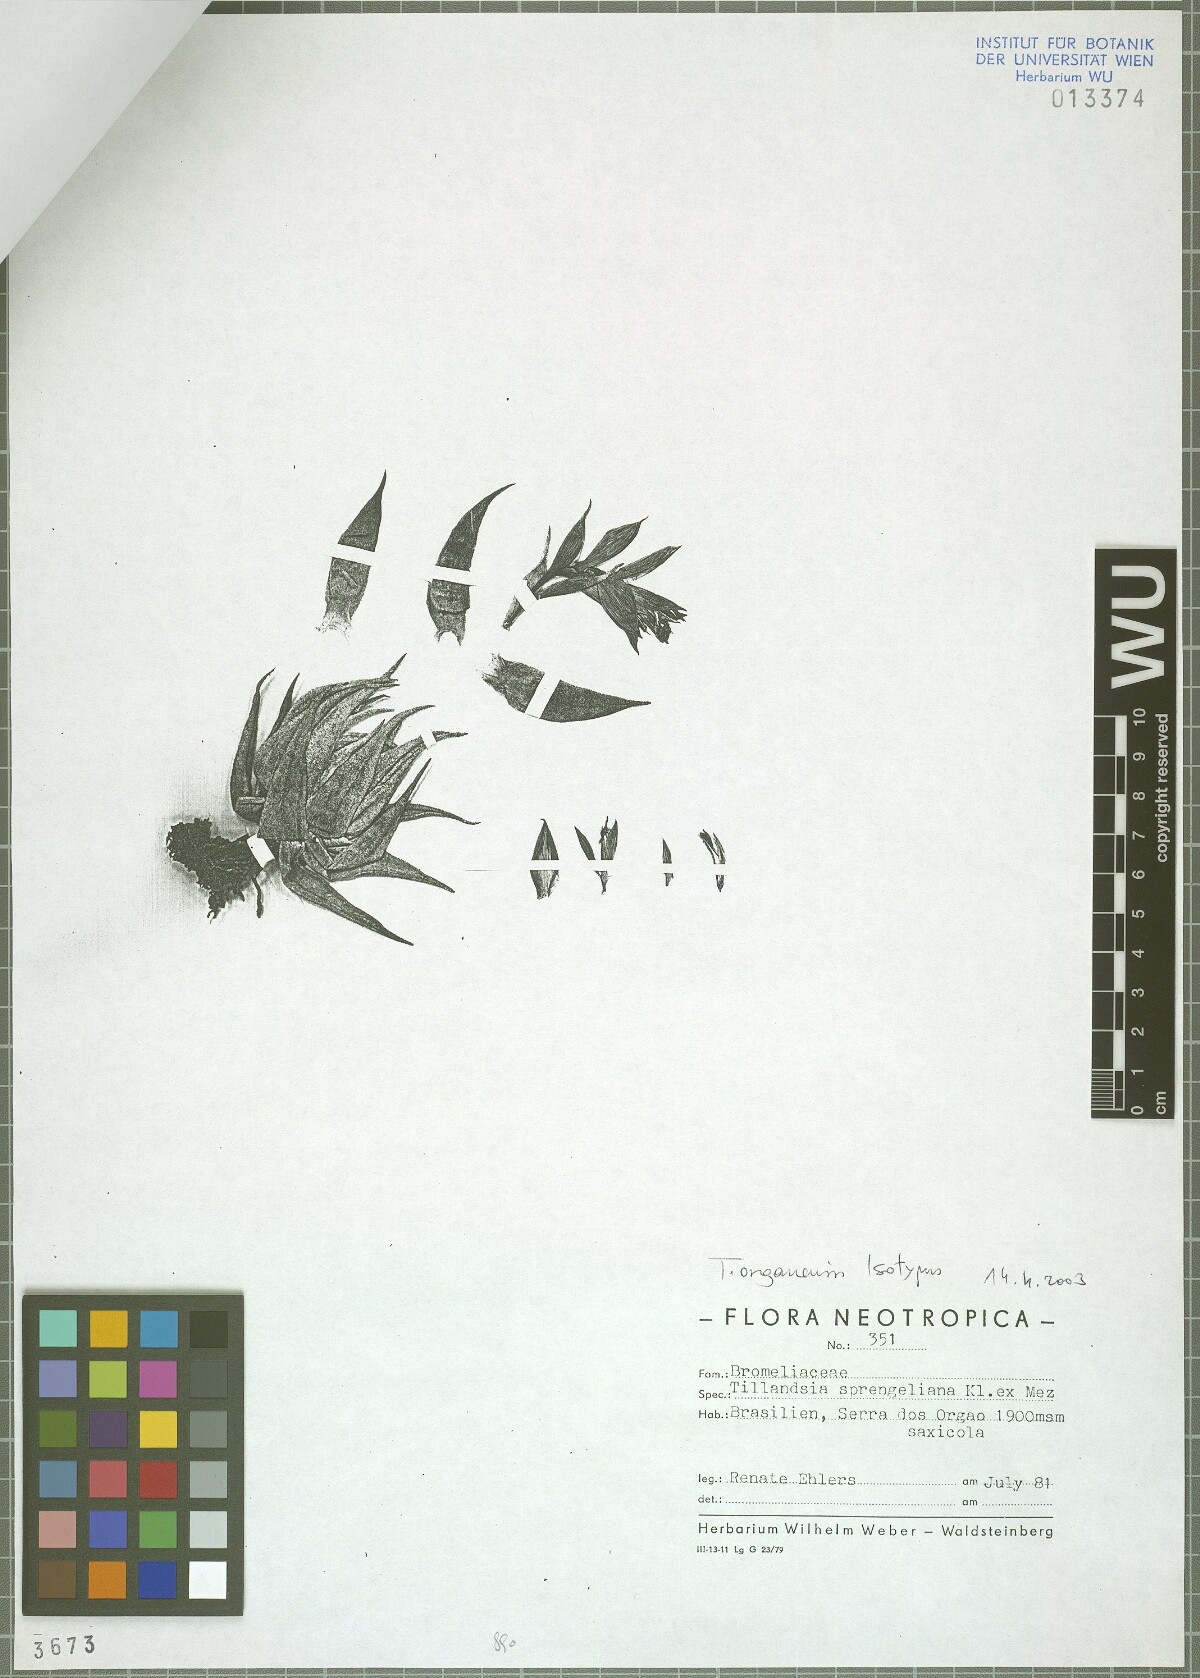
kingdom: Plantae
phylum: Tracheophyta
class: Liliopsida
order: Poales
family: Bromeliaceae
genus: Tillandsia
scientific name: Tillandsia organensis
